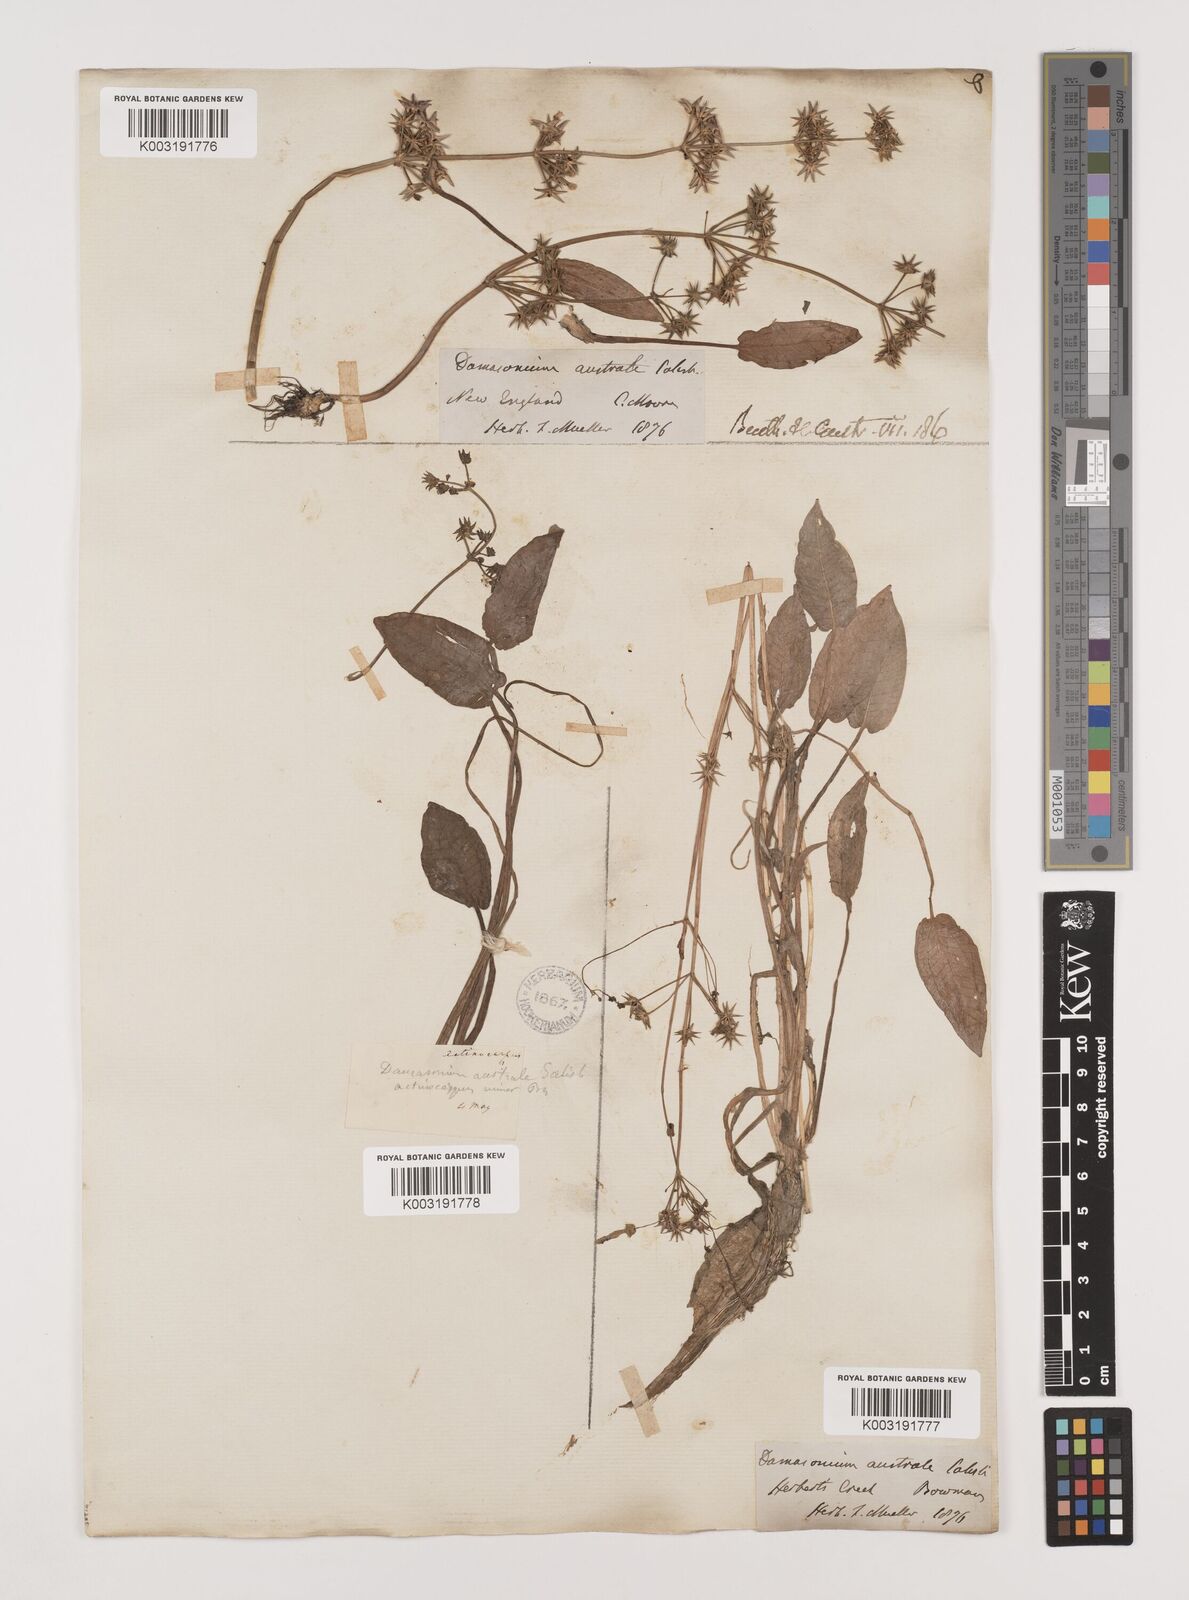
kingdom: Plantae
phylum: Tracheophyta
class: Liliopsida
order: Alismatales
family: Alismataceae
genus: Damasonium
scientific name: Damasonium minus
